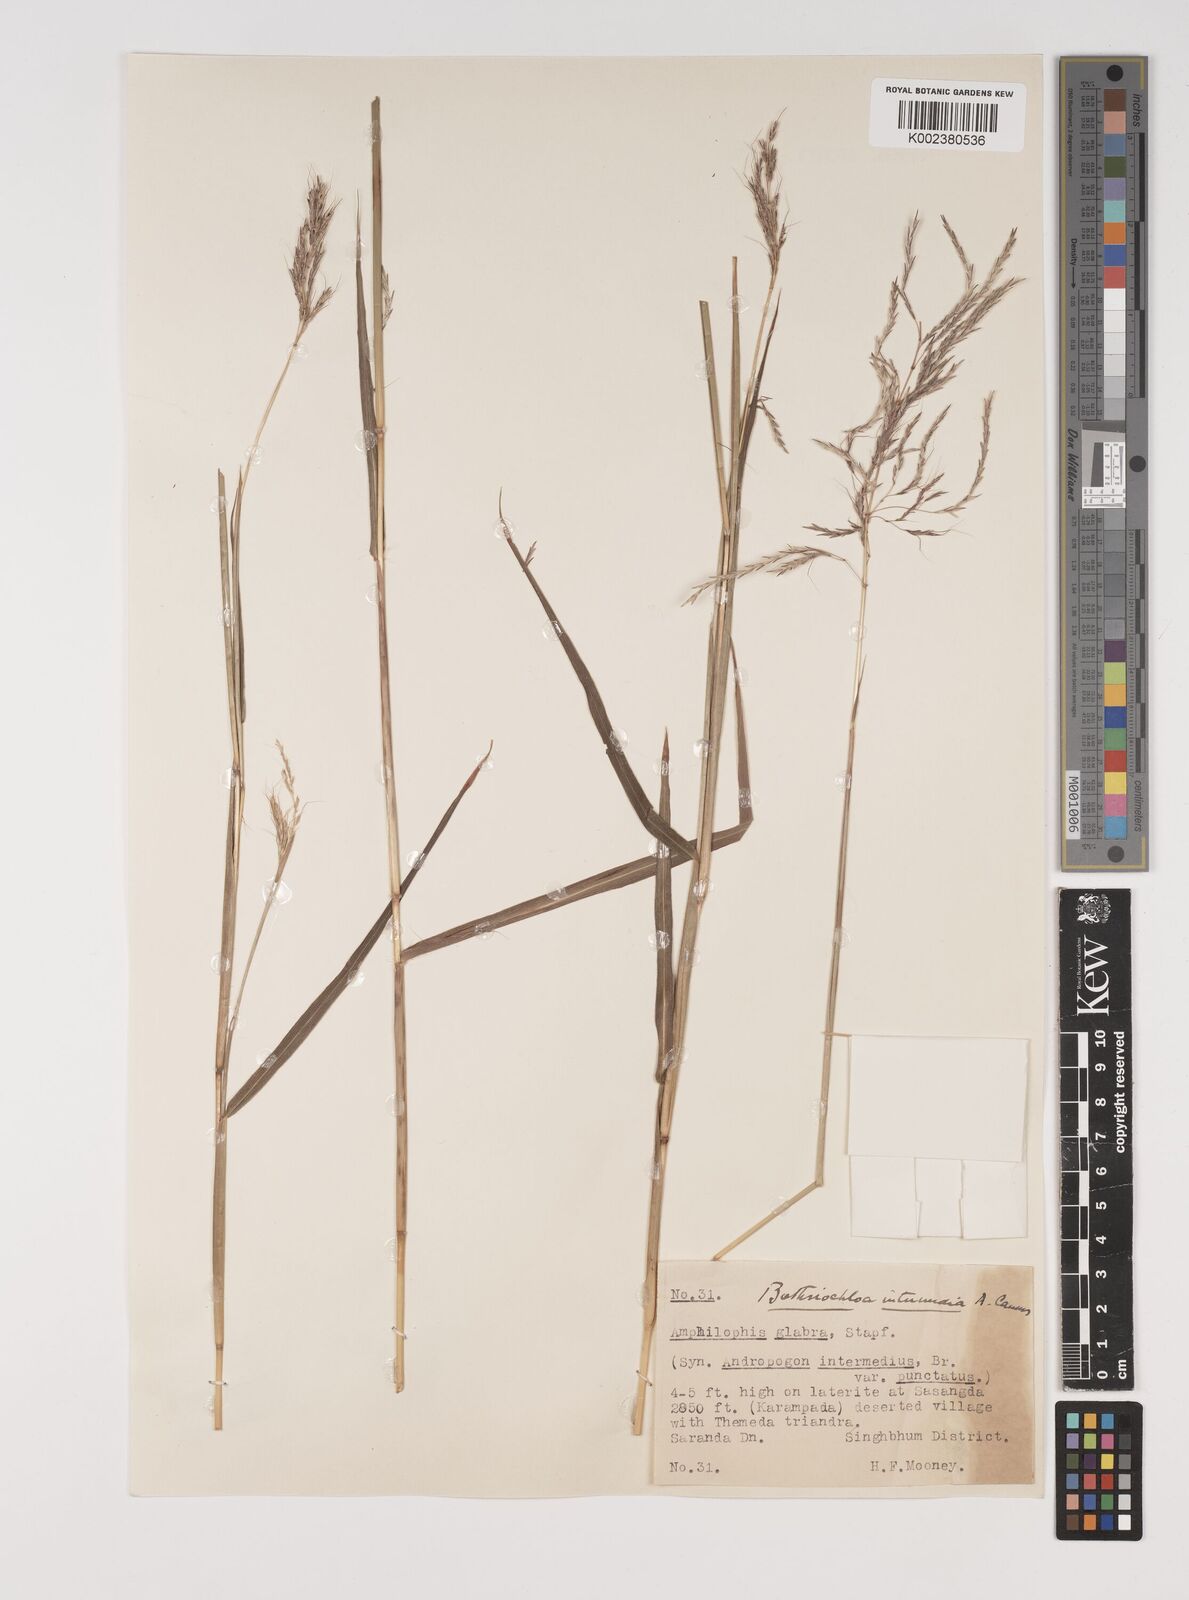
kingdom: Plantae
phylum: Tracheophyta
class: Liliopsida
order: Poales
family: Poaceae
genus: Bothriochloa
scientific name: Bothriochloa bladhii
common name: Caucasian bluestem
